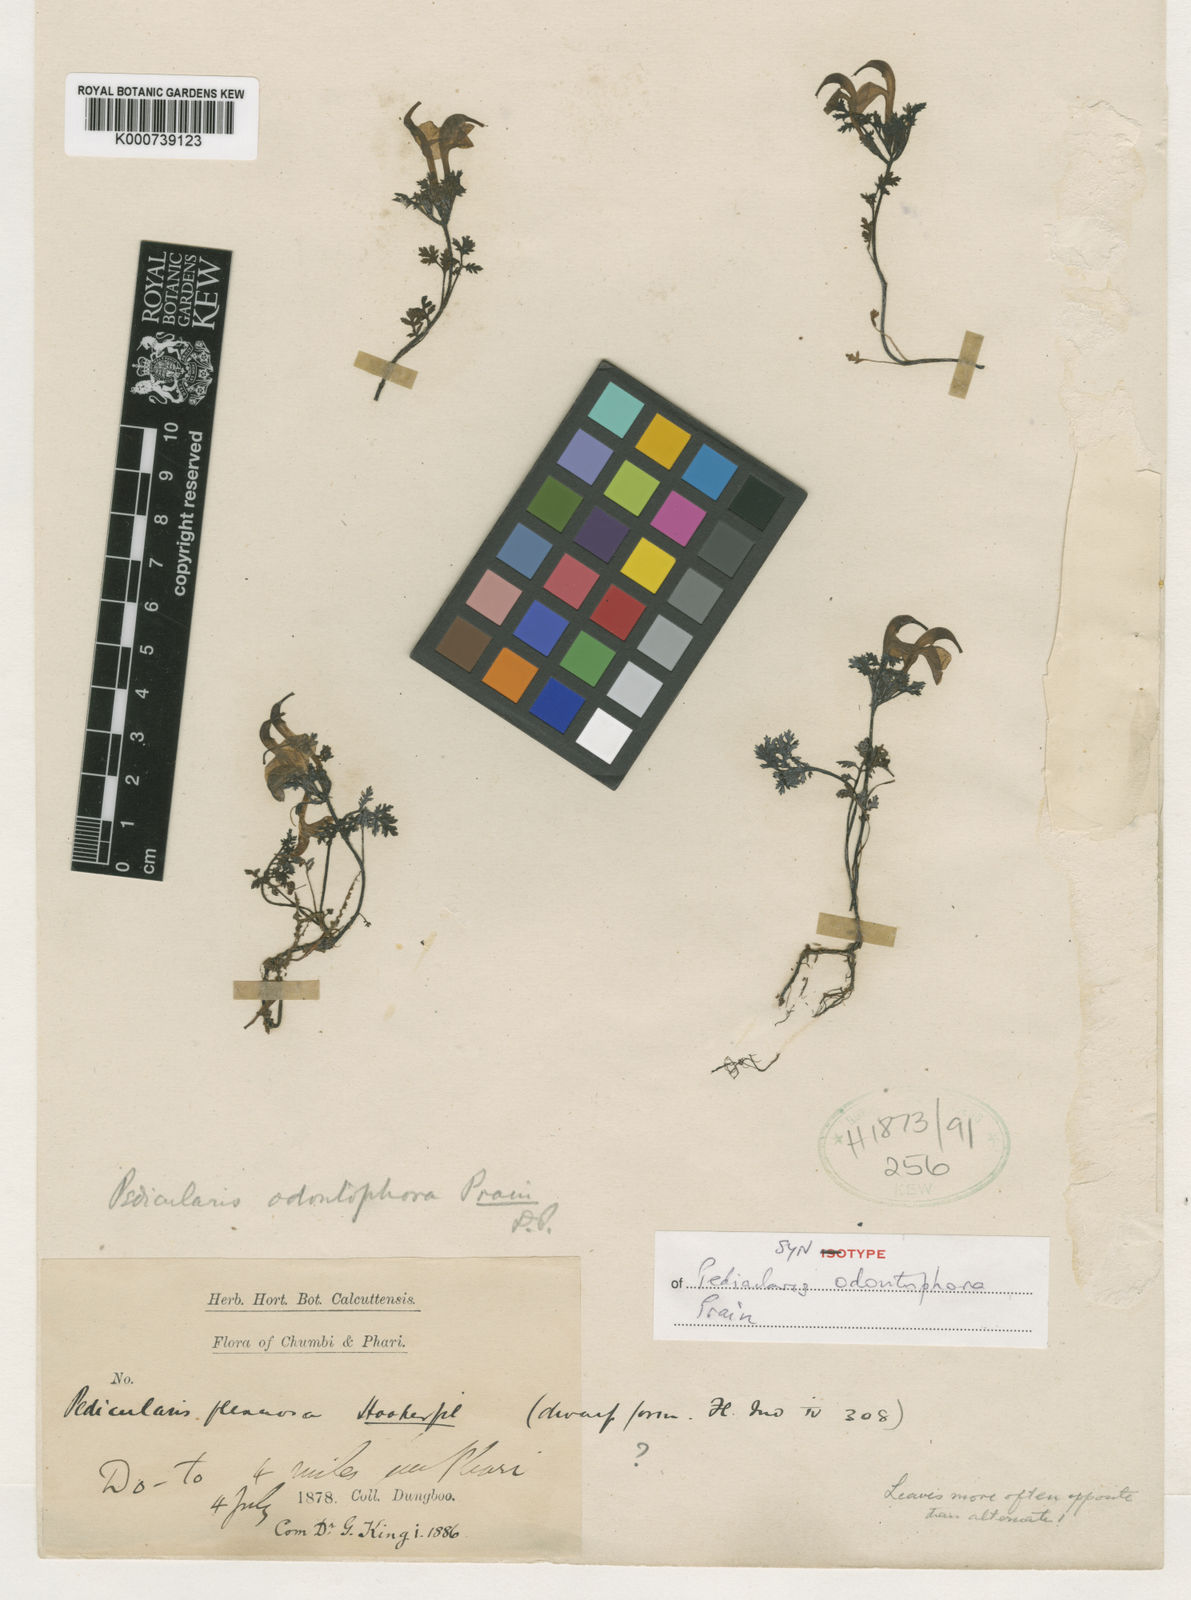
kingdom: Plantae
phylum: Tracheophyta
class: Magnoliopsida
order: Lamiales
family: Orobanchaceae
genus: Pedicularis
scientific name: Pedicularis odontophora
